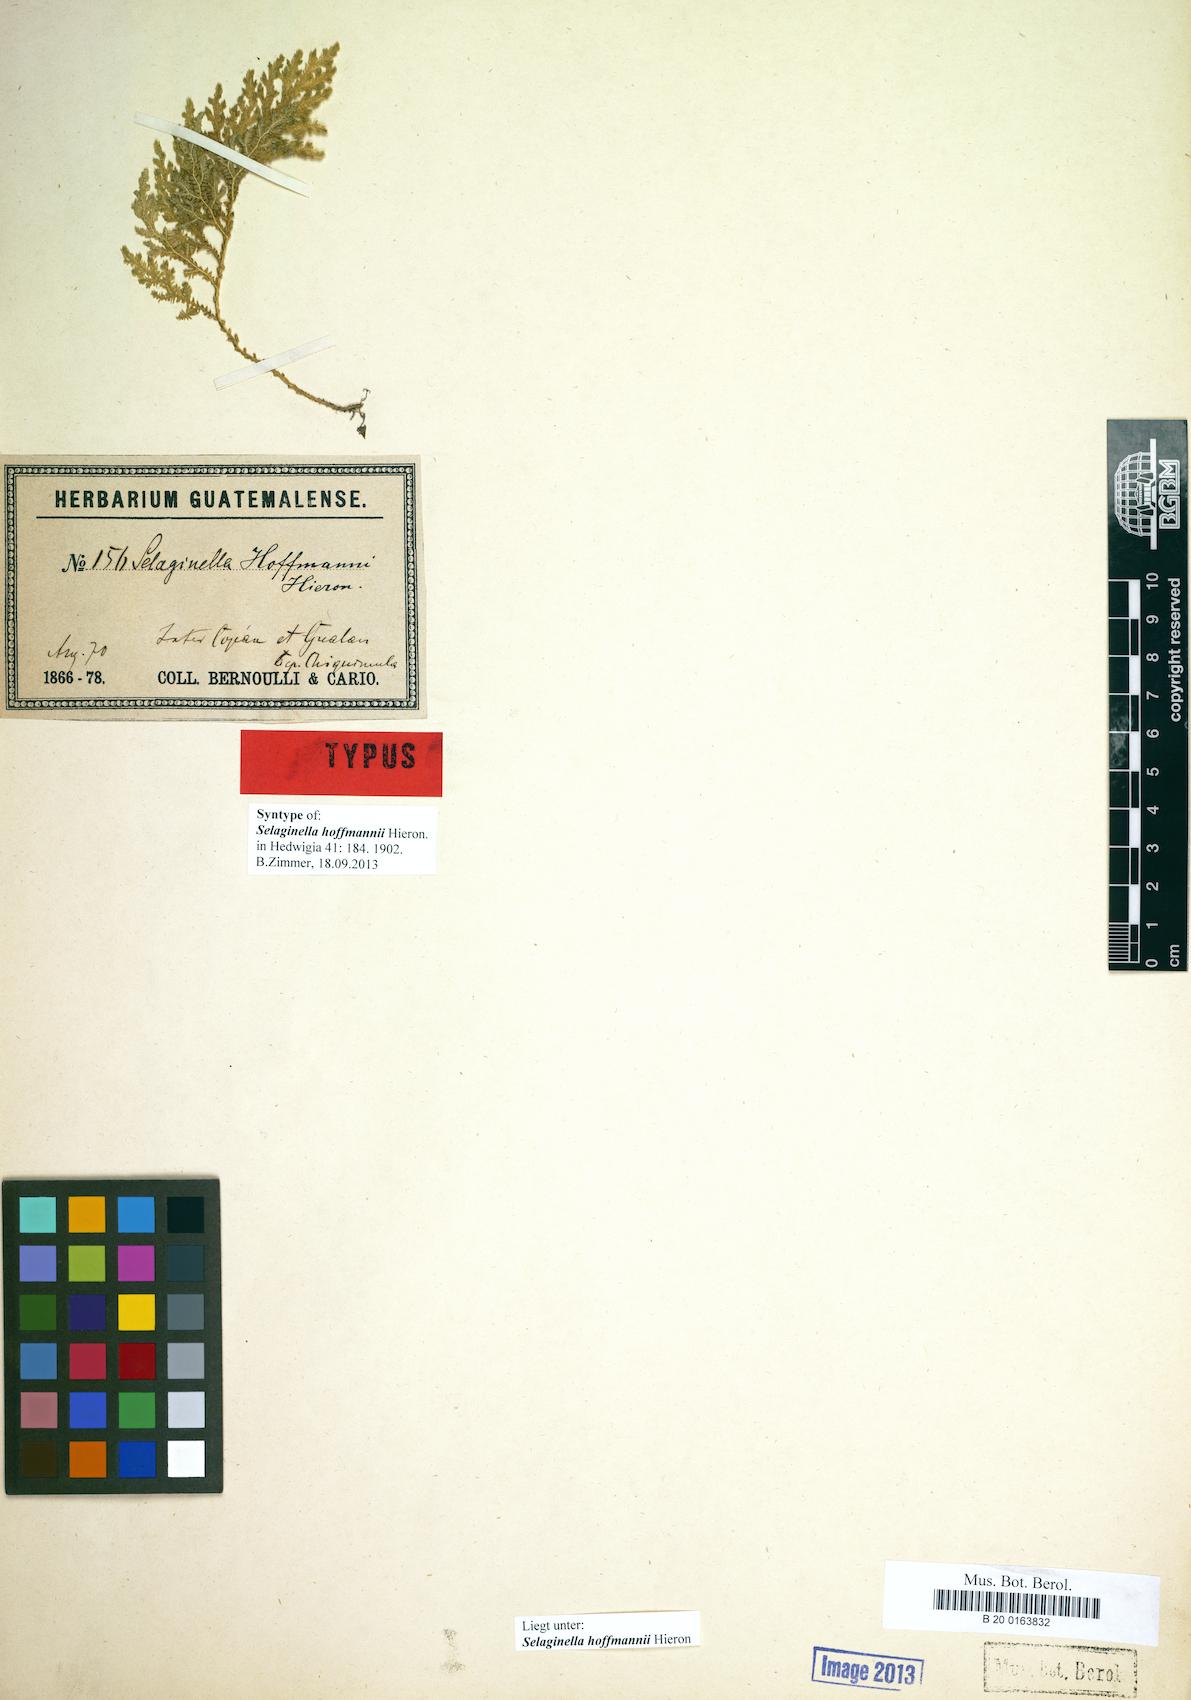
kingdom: Plantae
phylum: Tracheophyta
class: Lycopodiopsida
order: Selaginellales
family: Selaginellaceae
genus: Selaginella
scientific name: Selaginella hoffmannii
